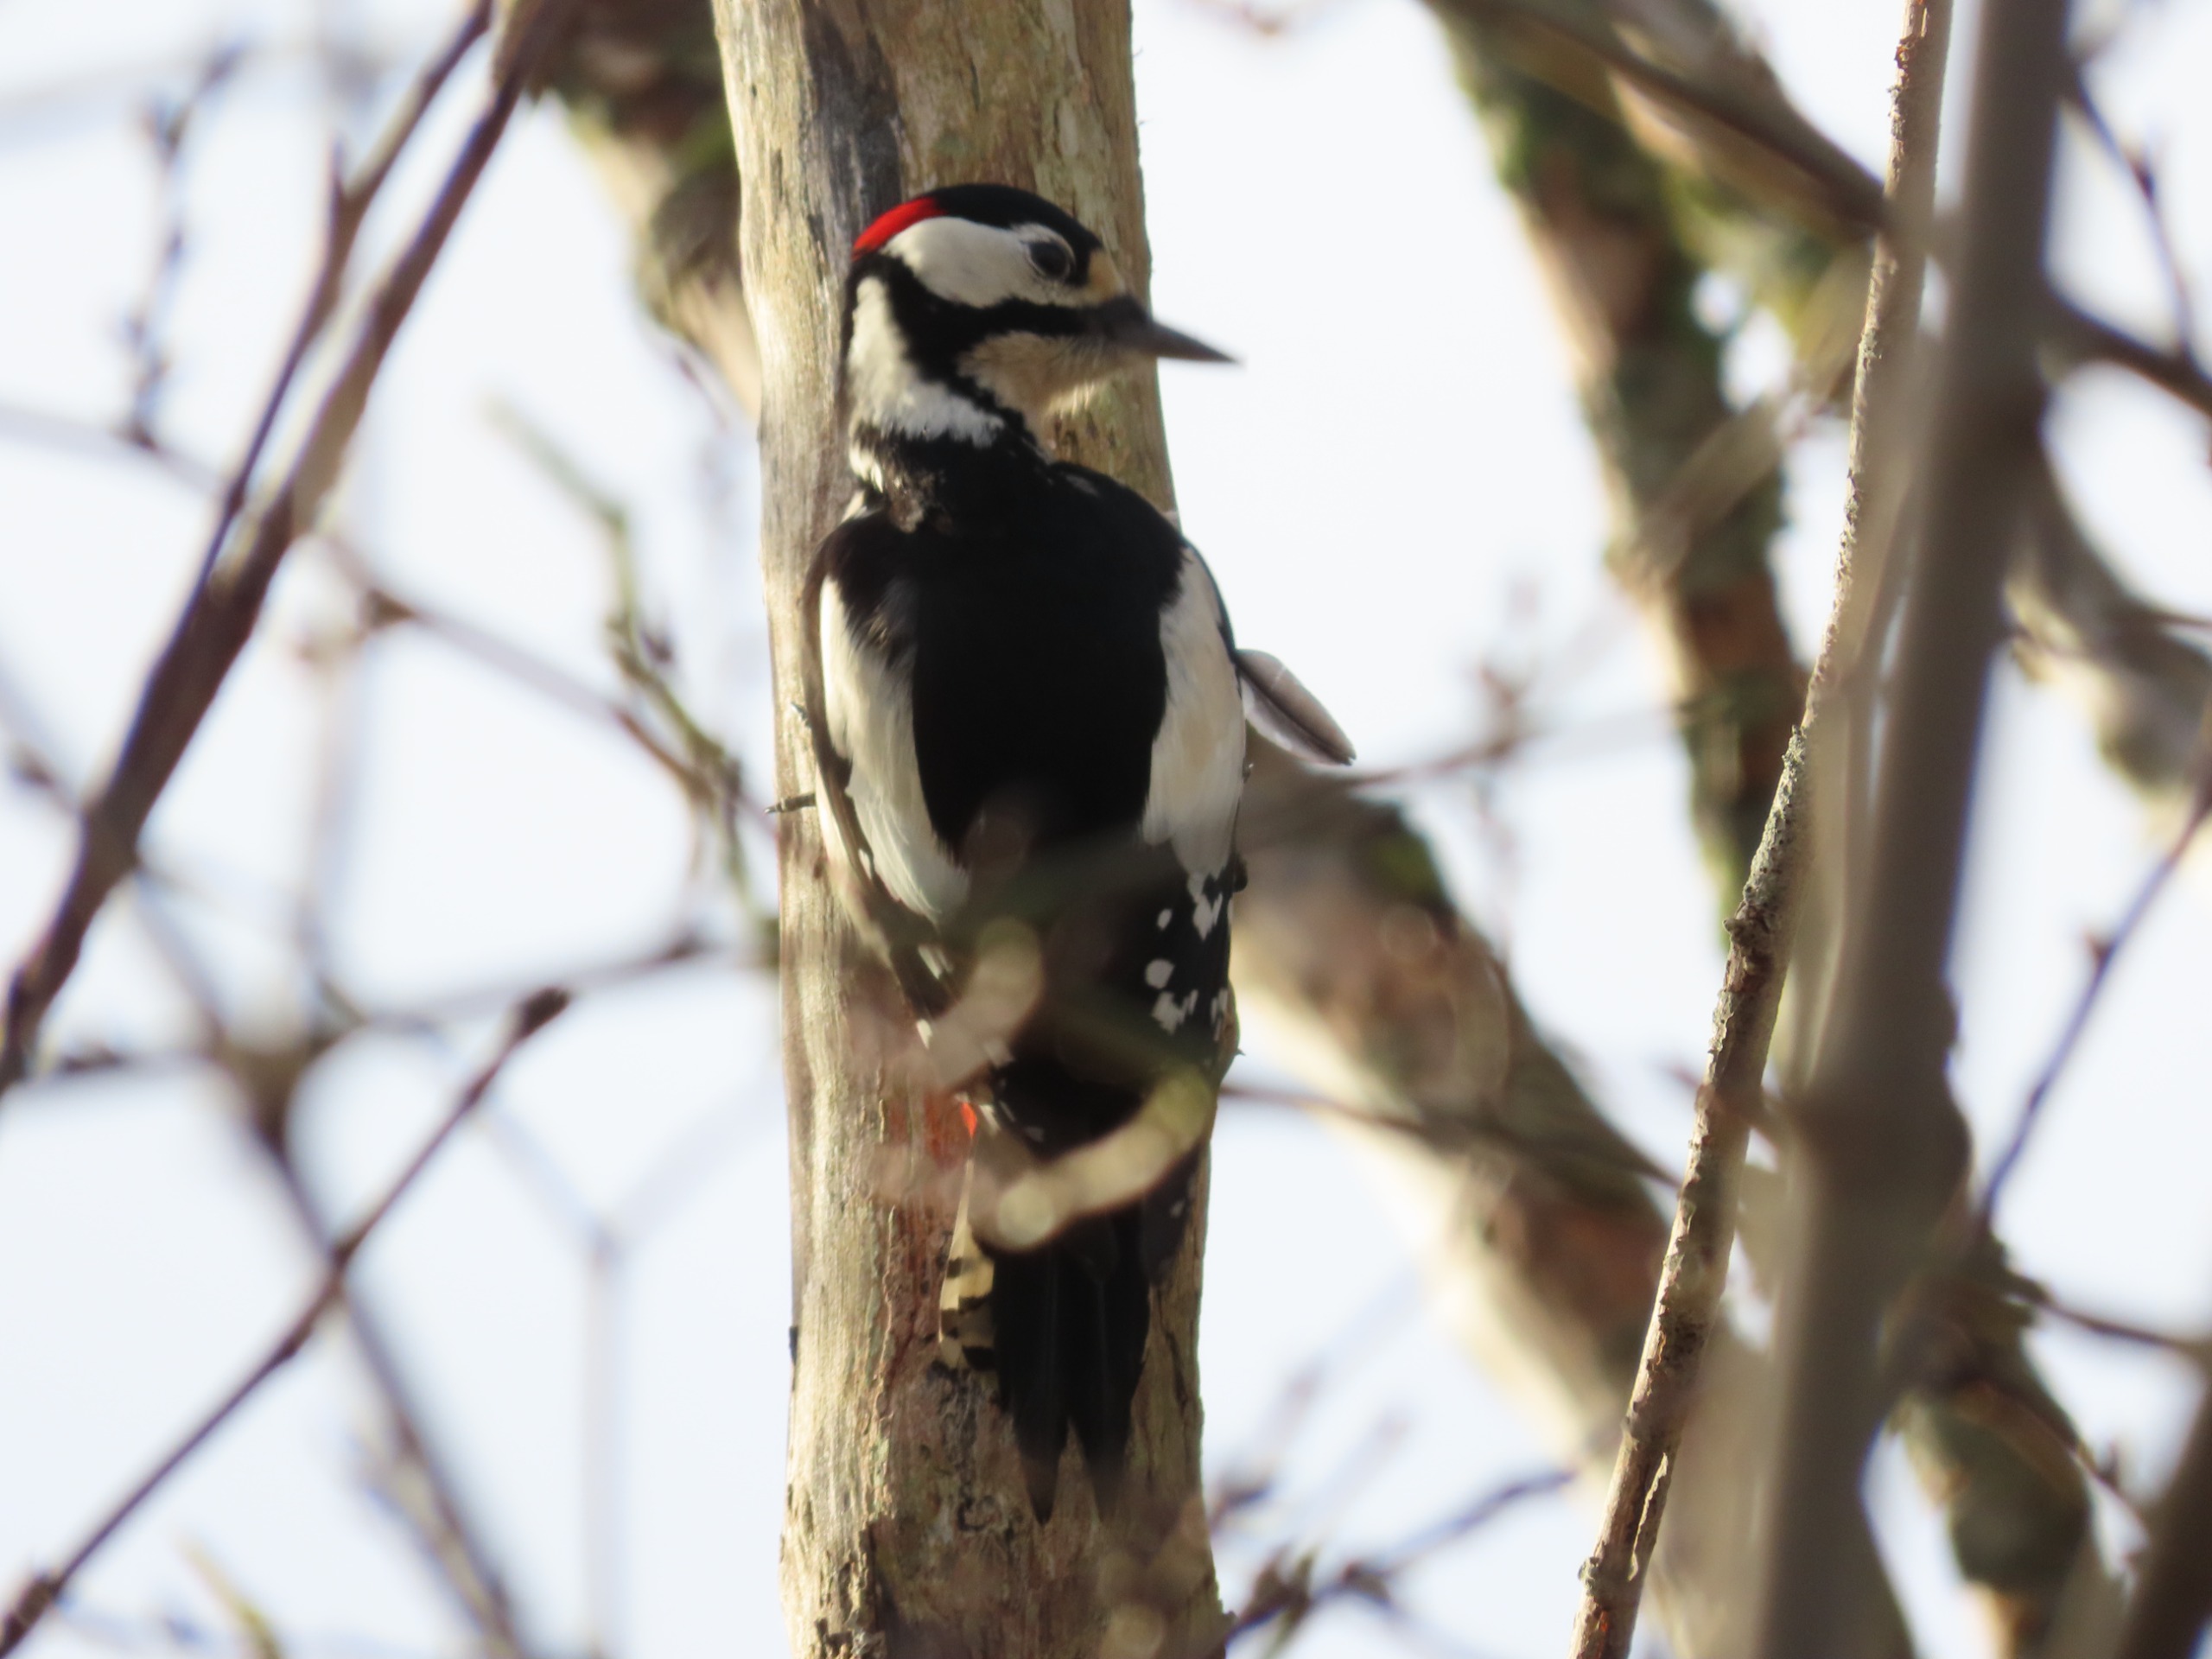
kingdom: Animalia
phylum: Chordata
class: Aves
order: Piciformes
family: Picidae
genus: Dendrocopos
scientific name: Dendrocopos major
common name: Stor flagspætte
